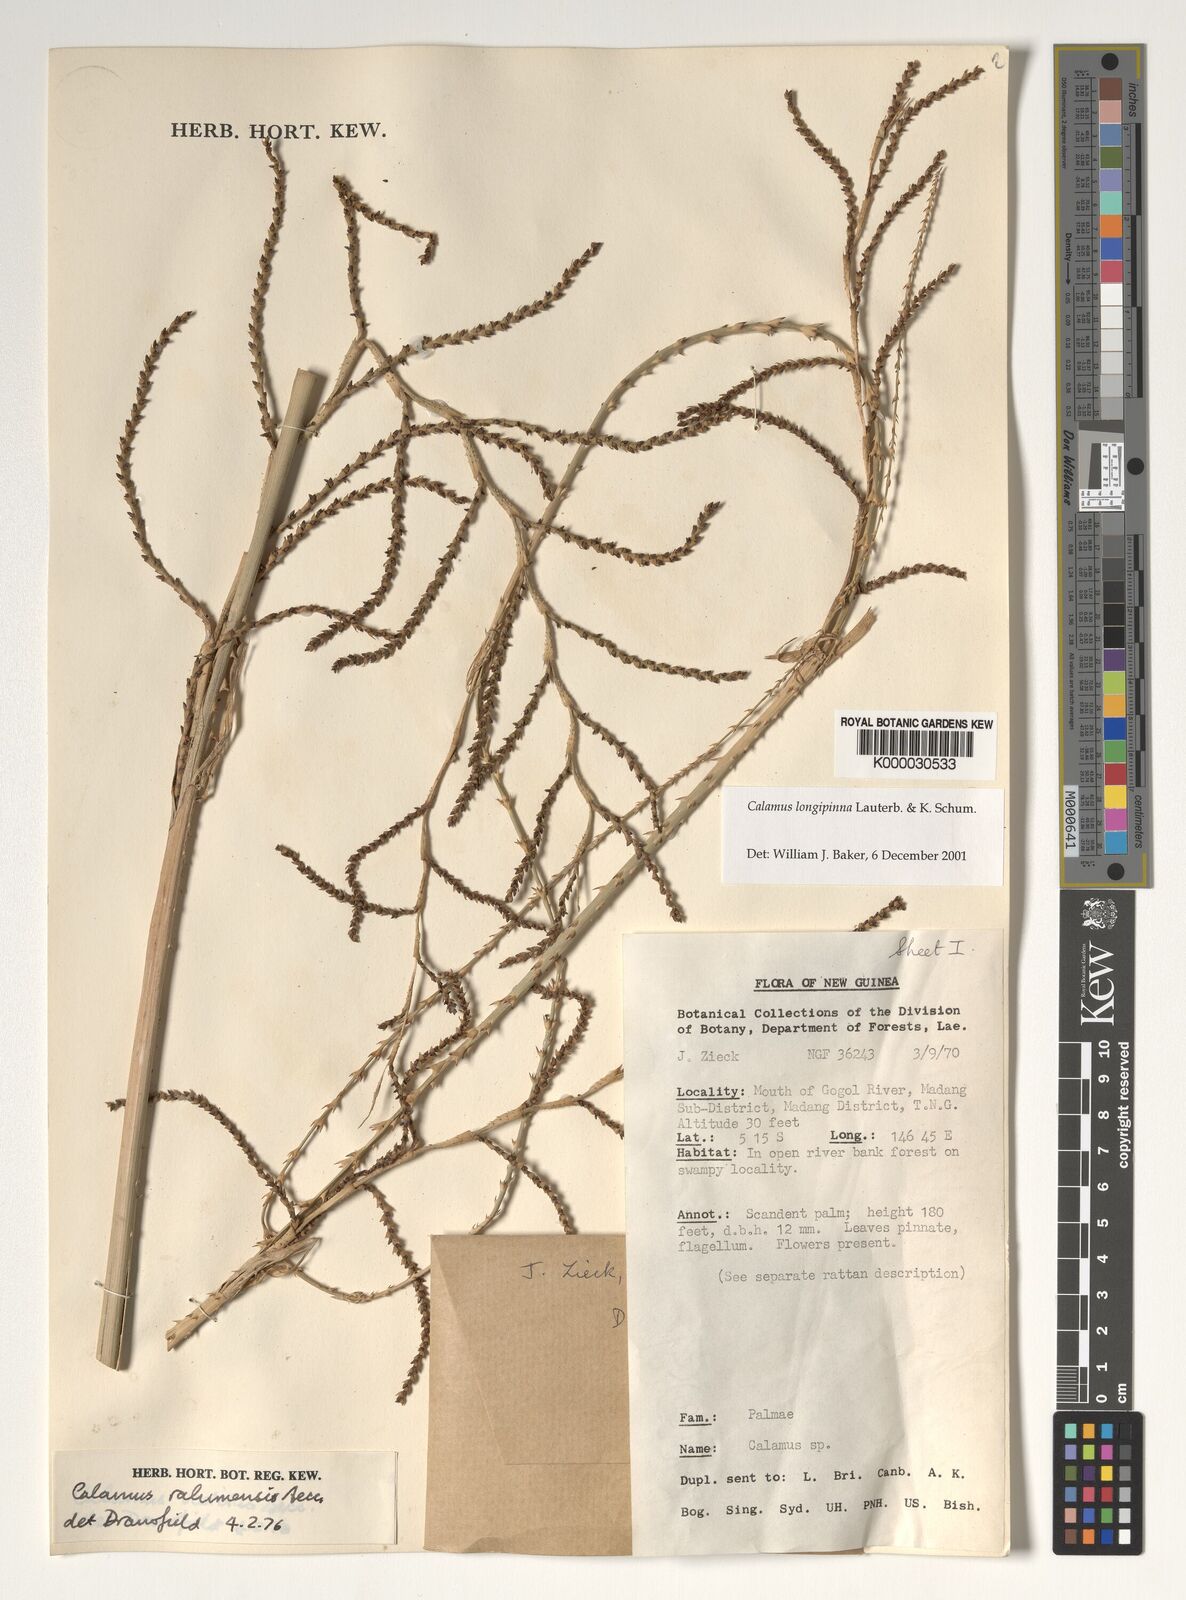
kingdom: Plantae
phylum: Tracheophyta
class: Liliopsida
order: Arecales
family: Arecaceae
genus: Calamus
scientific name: Calamus longipinna
